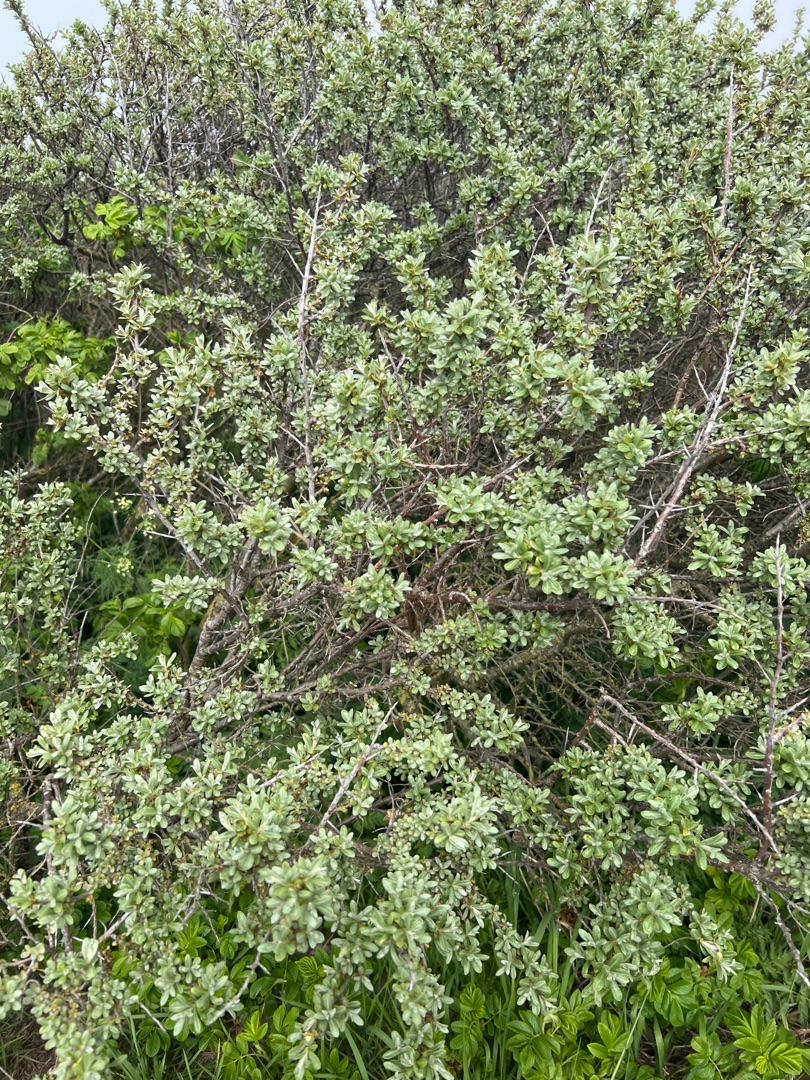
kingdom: Plantae
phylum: Tracheophyta
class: Magnoliopsida
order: Rosales
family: Elaeagnaceae
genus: Hippophae
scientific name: Hippophae rhamnoides
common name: Havtorn
